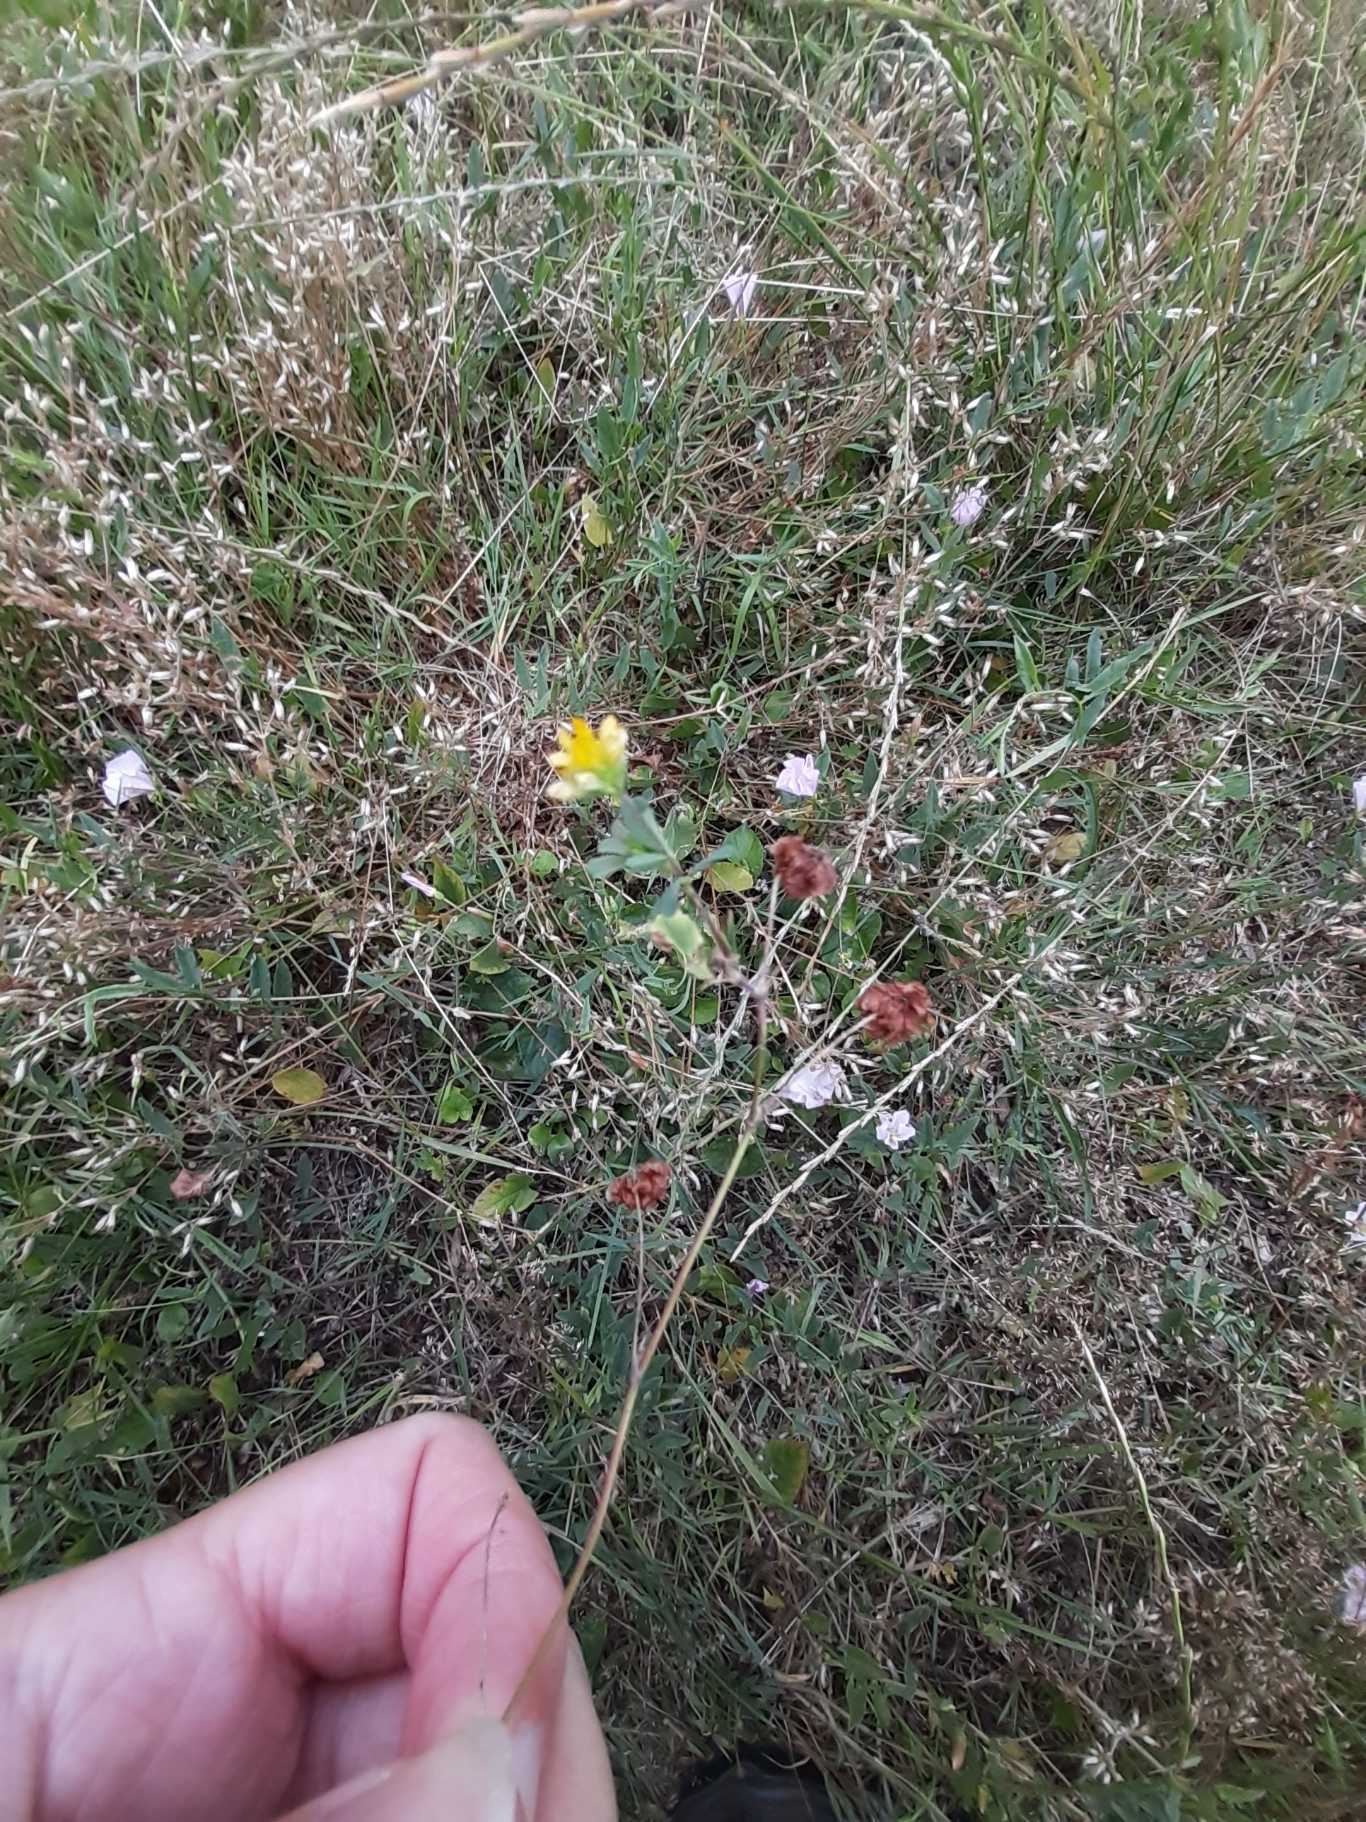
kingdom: Plantae
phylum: Tracheophyta
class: Magnoliopsida
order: Fabales
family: Fabaceae
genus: Trifolium
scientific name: Trifolium dubium
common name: Fin kløver
